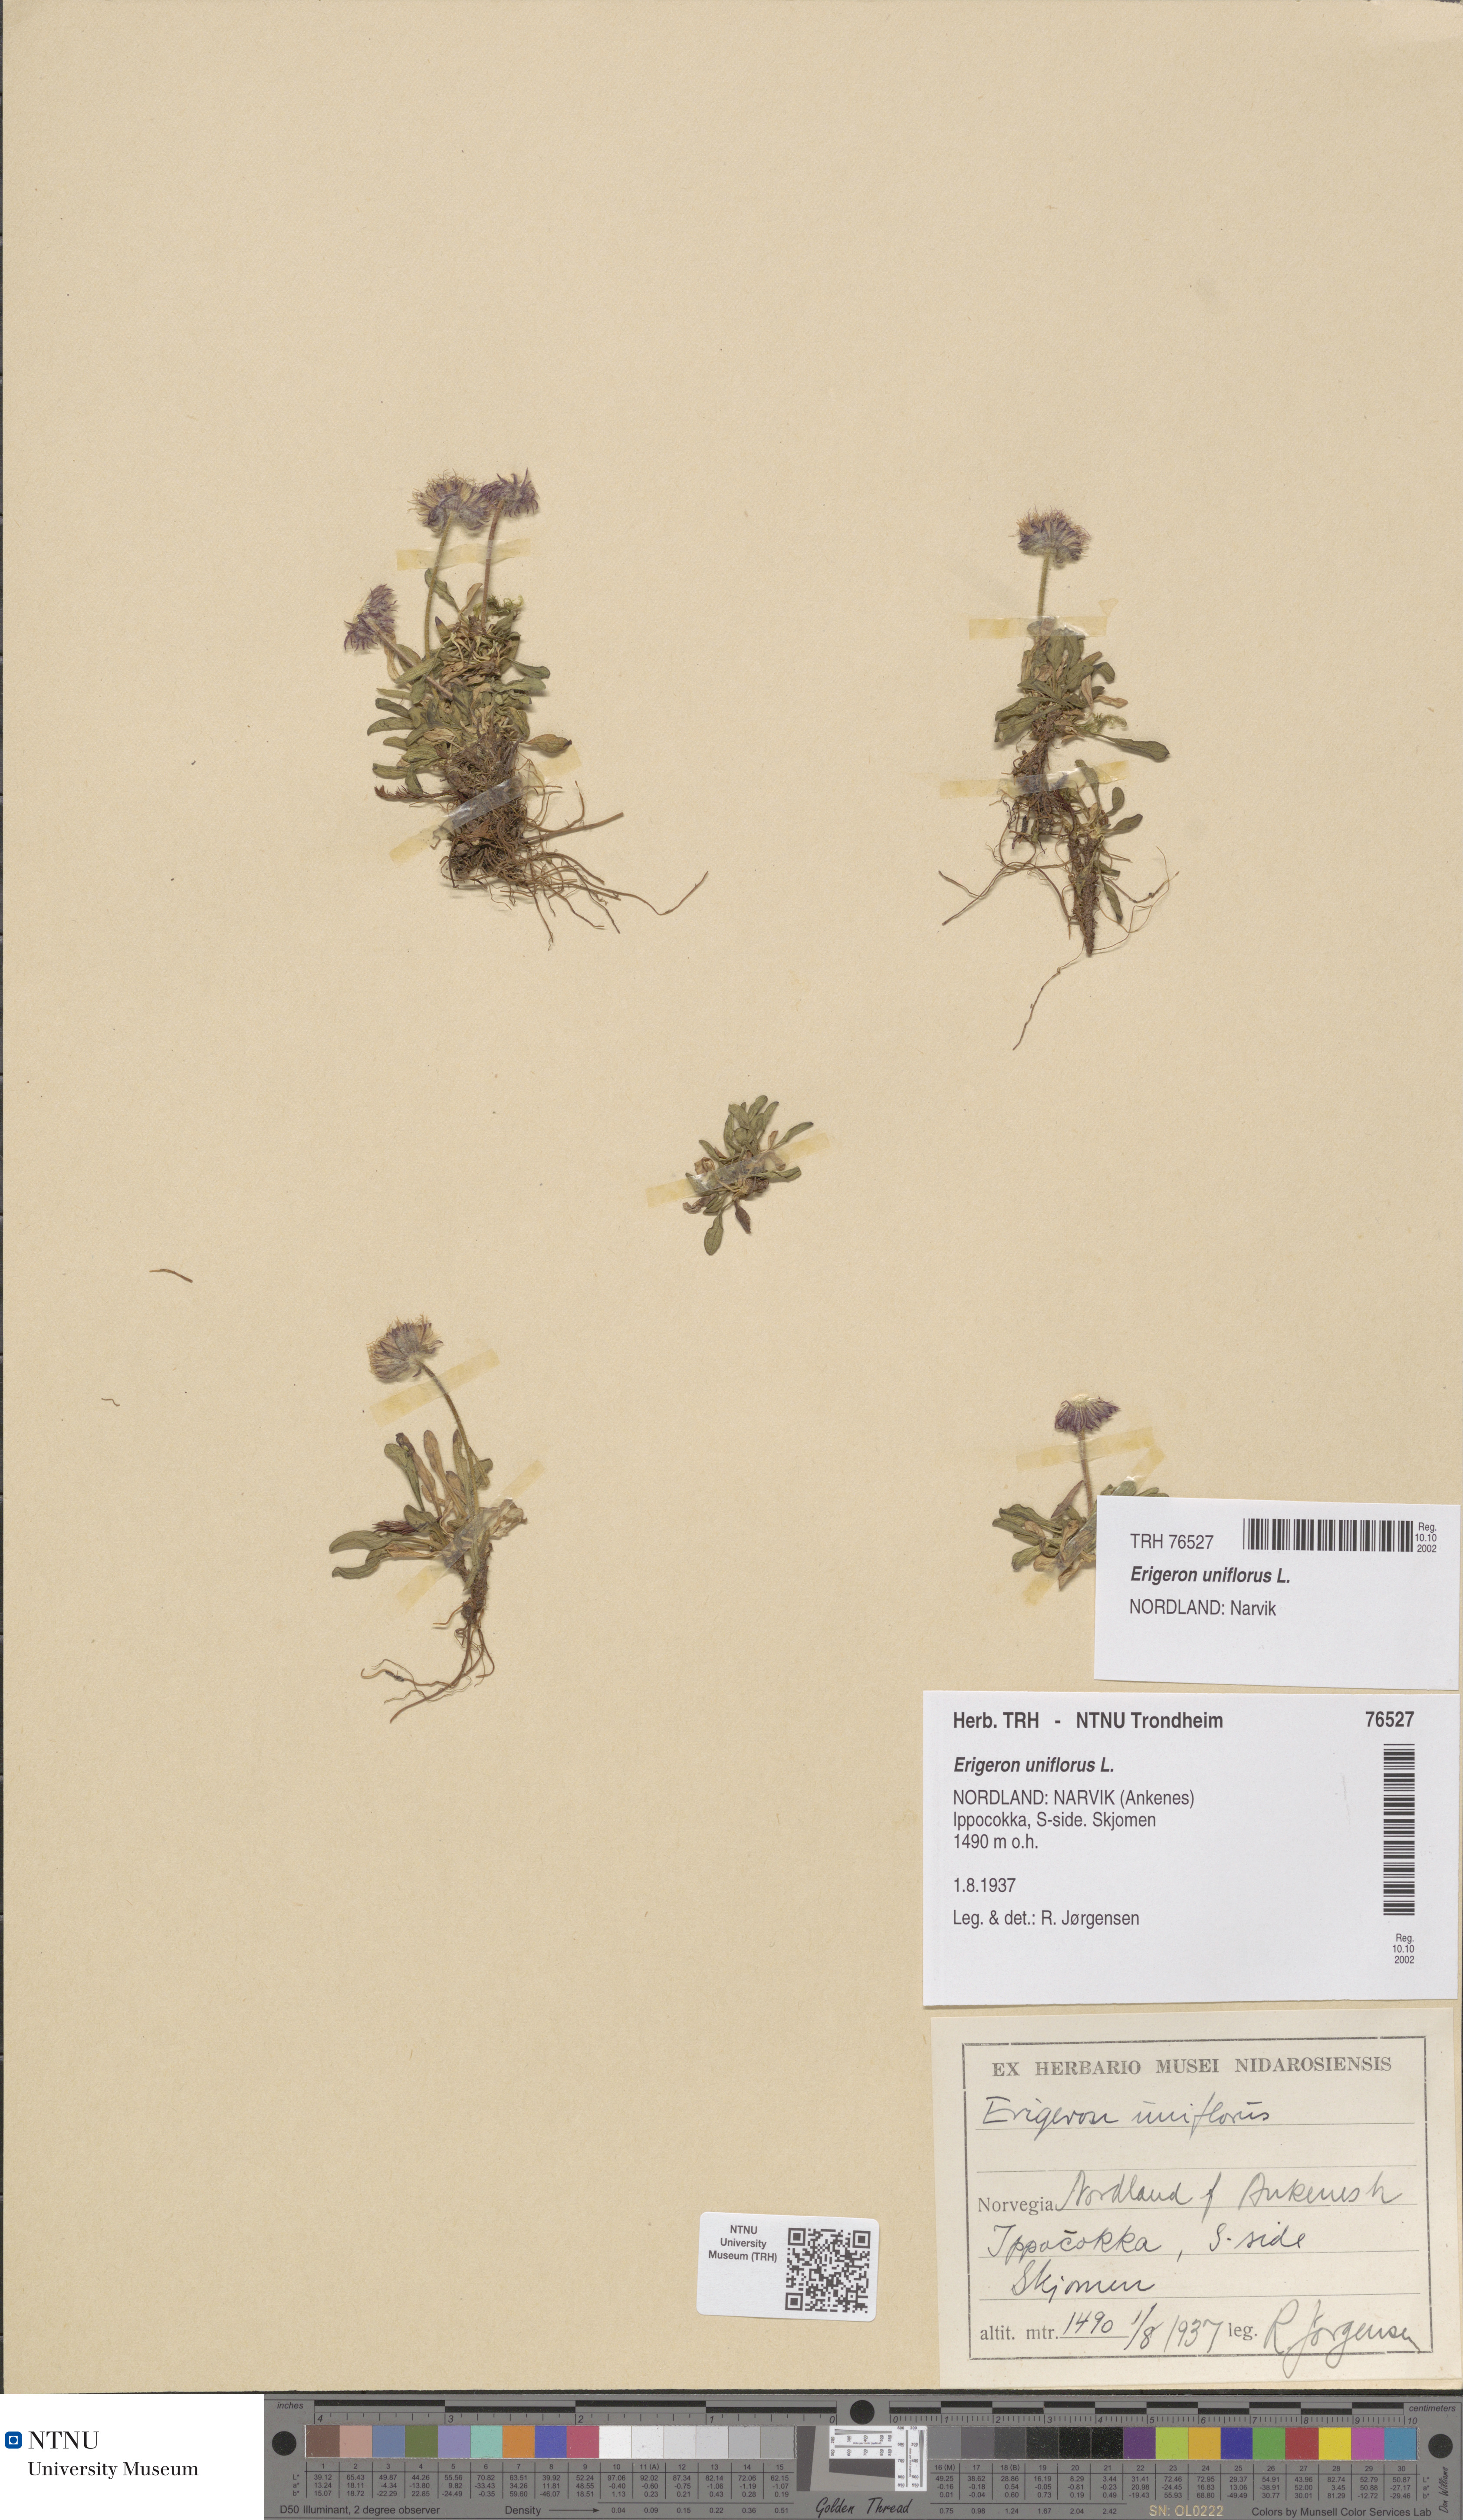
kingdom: Plantae
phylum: Tracheophyta
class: Magnoliopsida
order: Asterales
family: Asteraceae
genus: Erigeron
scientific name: Erigeron uniflorus
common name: Northern daisy
